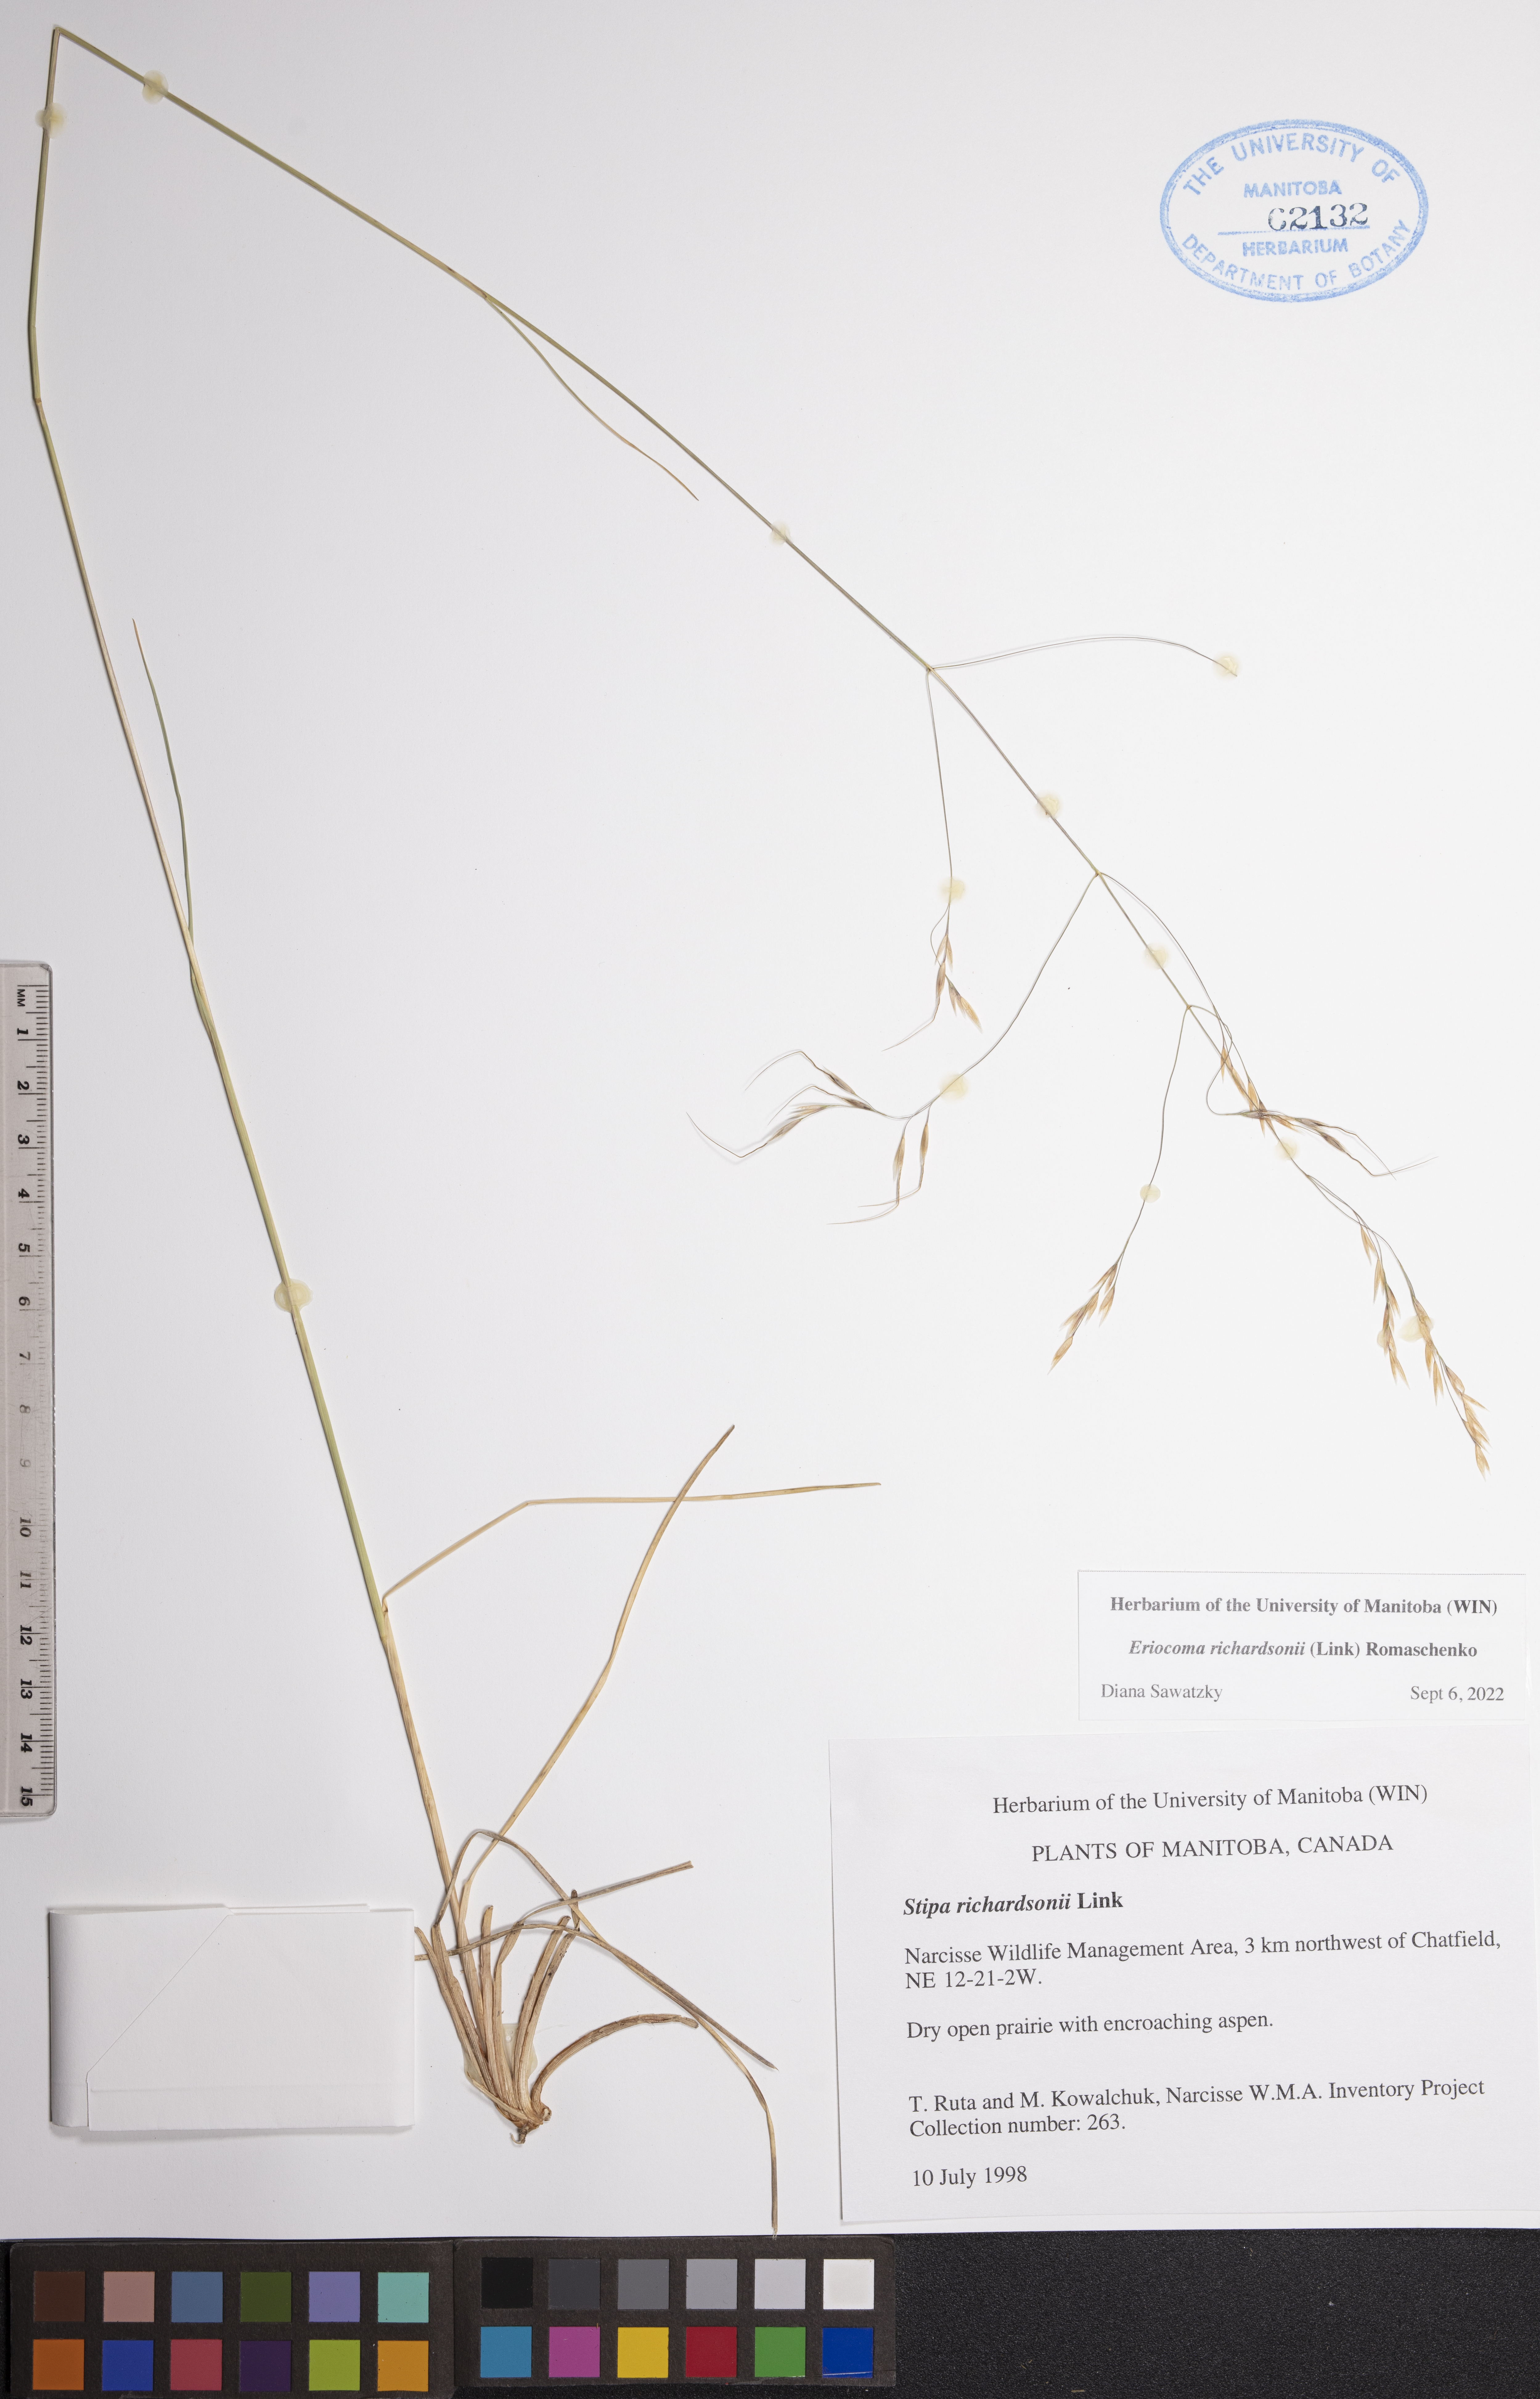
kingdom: Plantae
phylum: Tracheophyta
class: Liliopsida
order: Poales
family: Poaceae
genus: Eriocoma
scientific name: Eriocoma richardsonii
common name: Richardson's needlegrass
